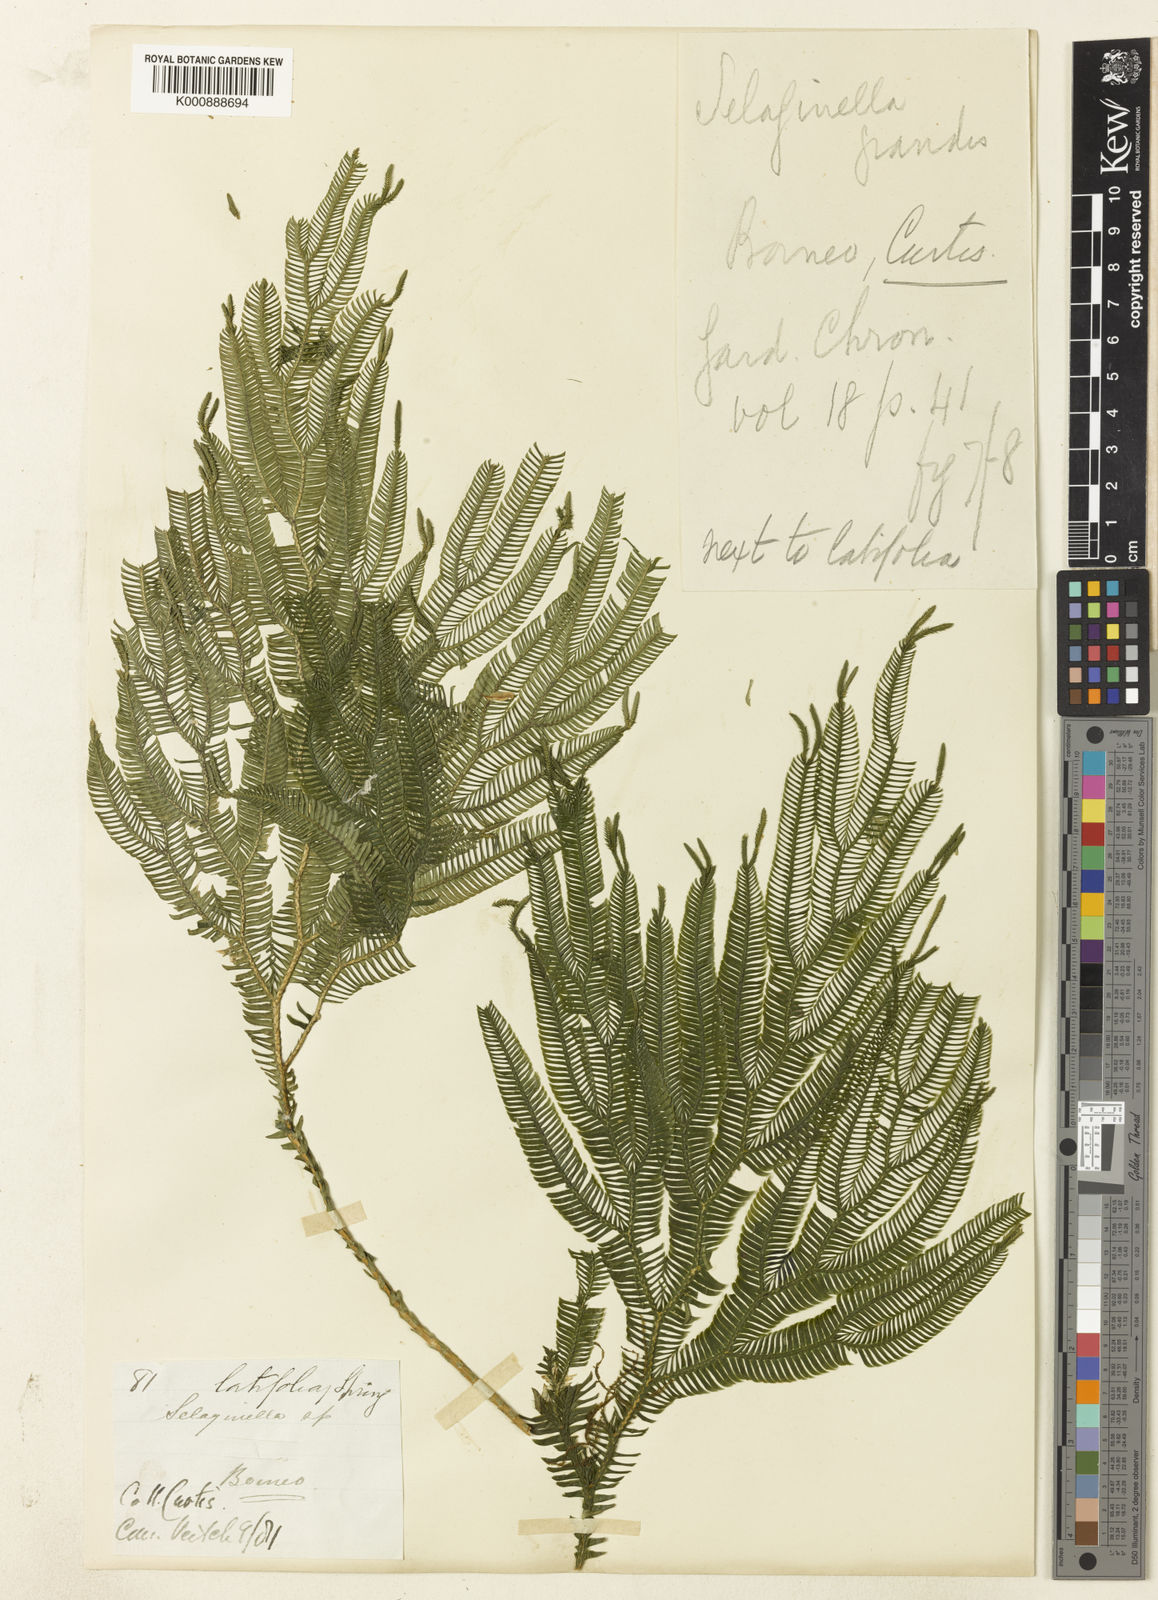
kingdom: Plantae
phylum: Tracheophyta
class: Lycopodiopsida
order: Selaginellales
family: Selaginellaceae
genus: Selaginella
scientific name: Selaginella grandis
